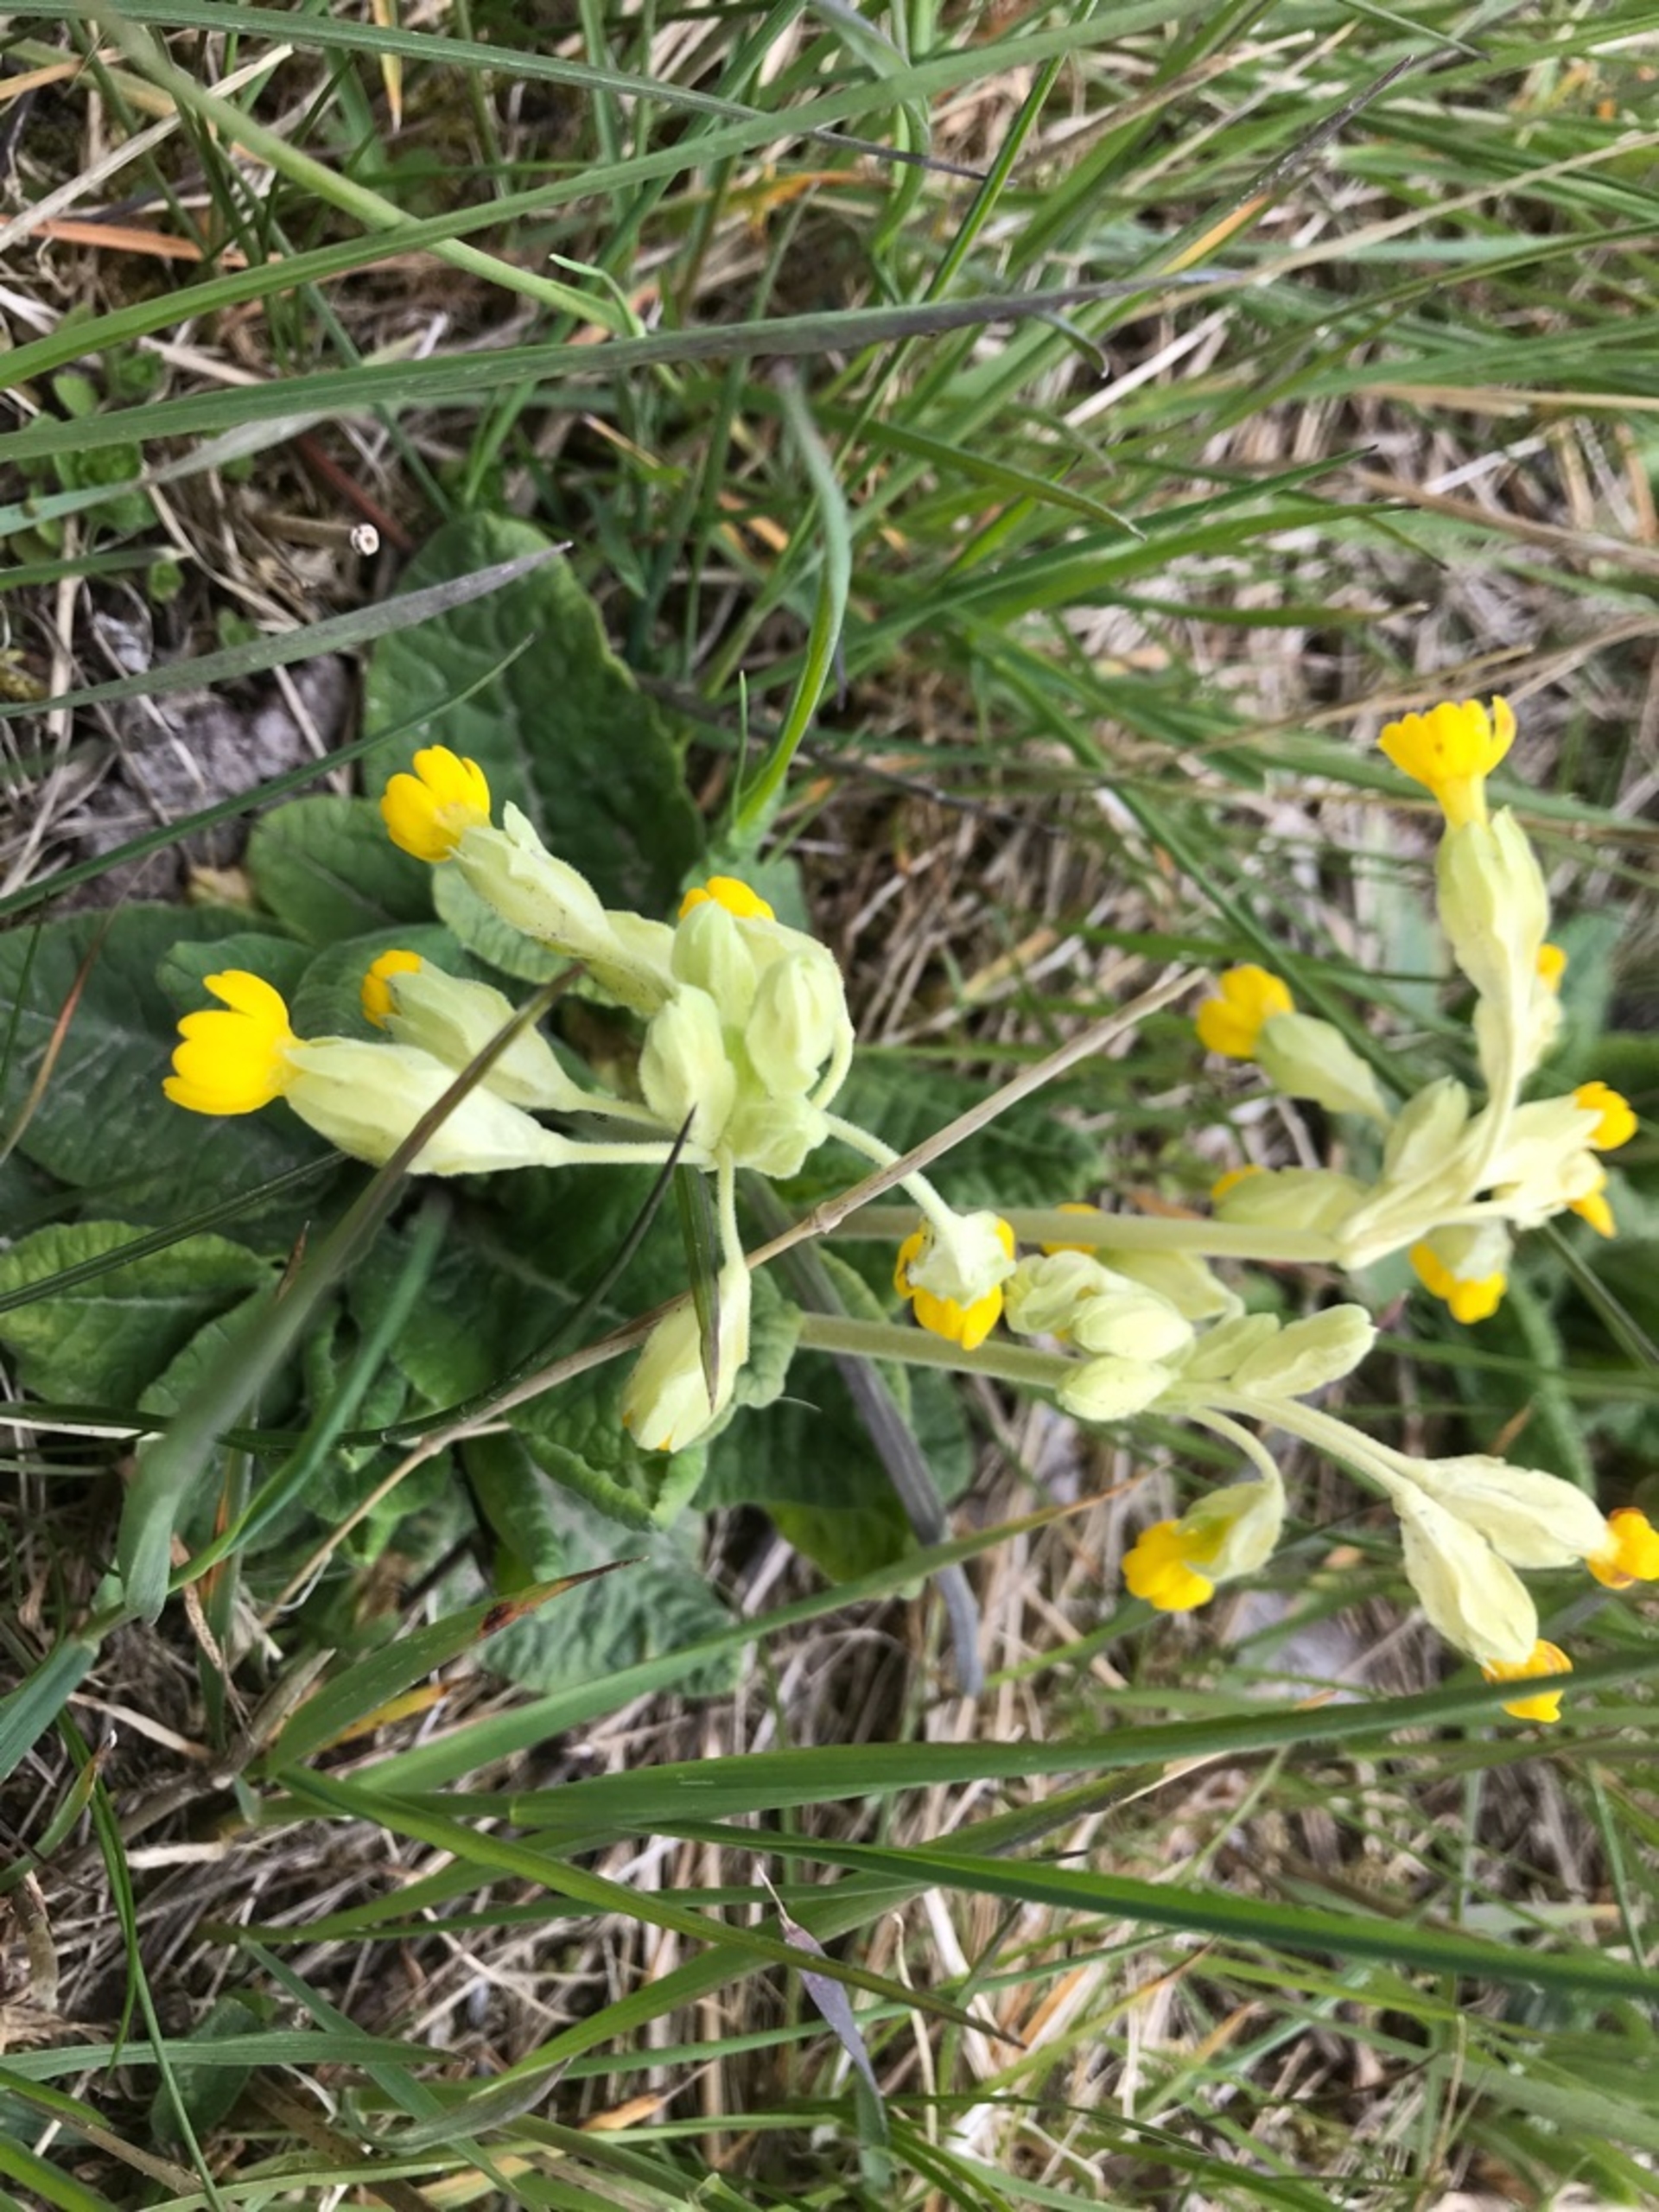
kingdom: Plantae
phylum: Tracheophyta
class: Magnoliopsida
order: Ericales
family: Primulaceae
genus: Primula
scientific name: Primula veris
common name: Hulkravet kodriver
